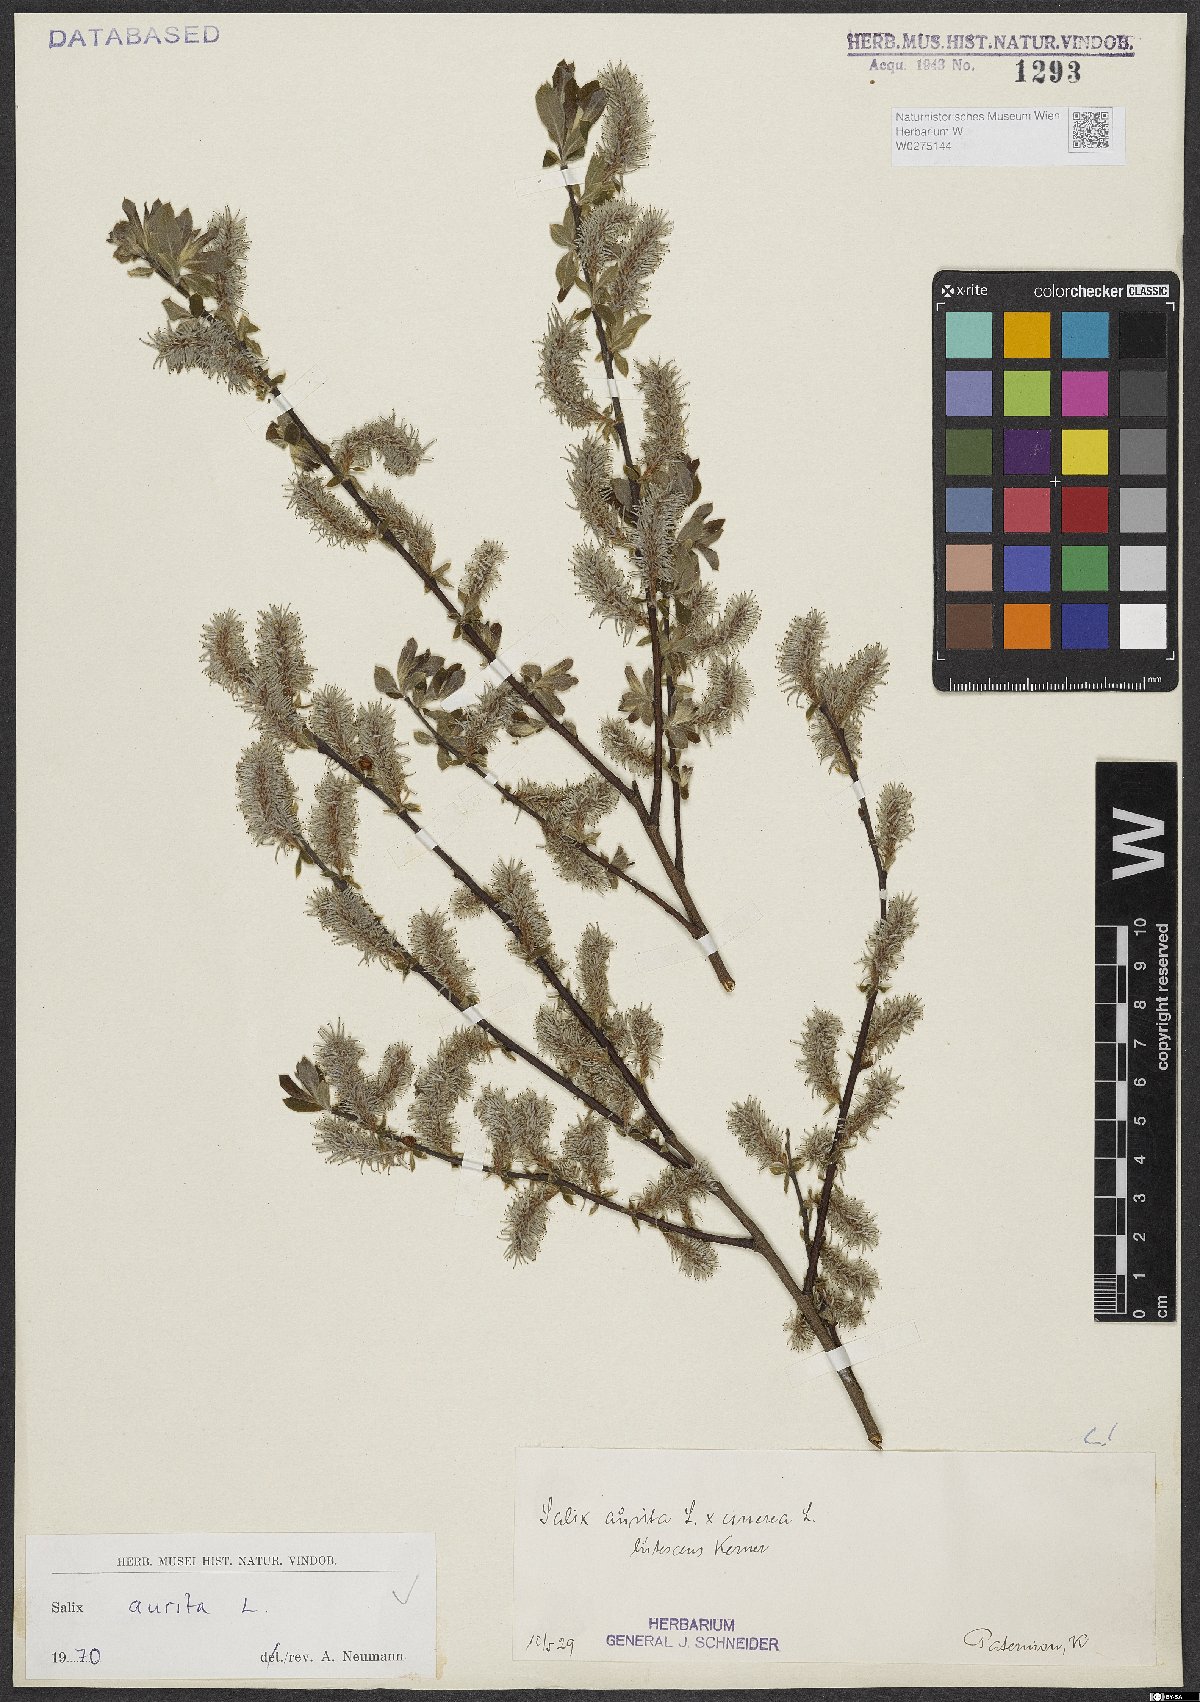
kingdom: Plantae
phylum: Tracheophyta
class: Magnoliopsida
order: Malpighiales
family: Salicaceae
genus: Salix
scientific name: Salix aurita
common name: Eared willow
